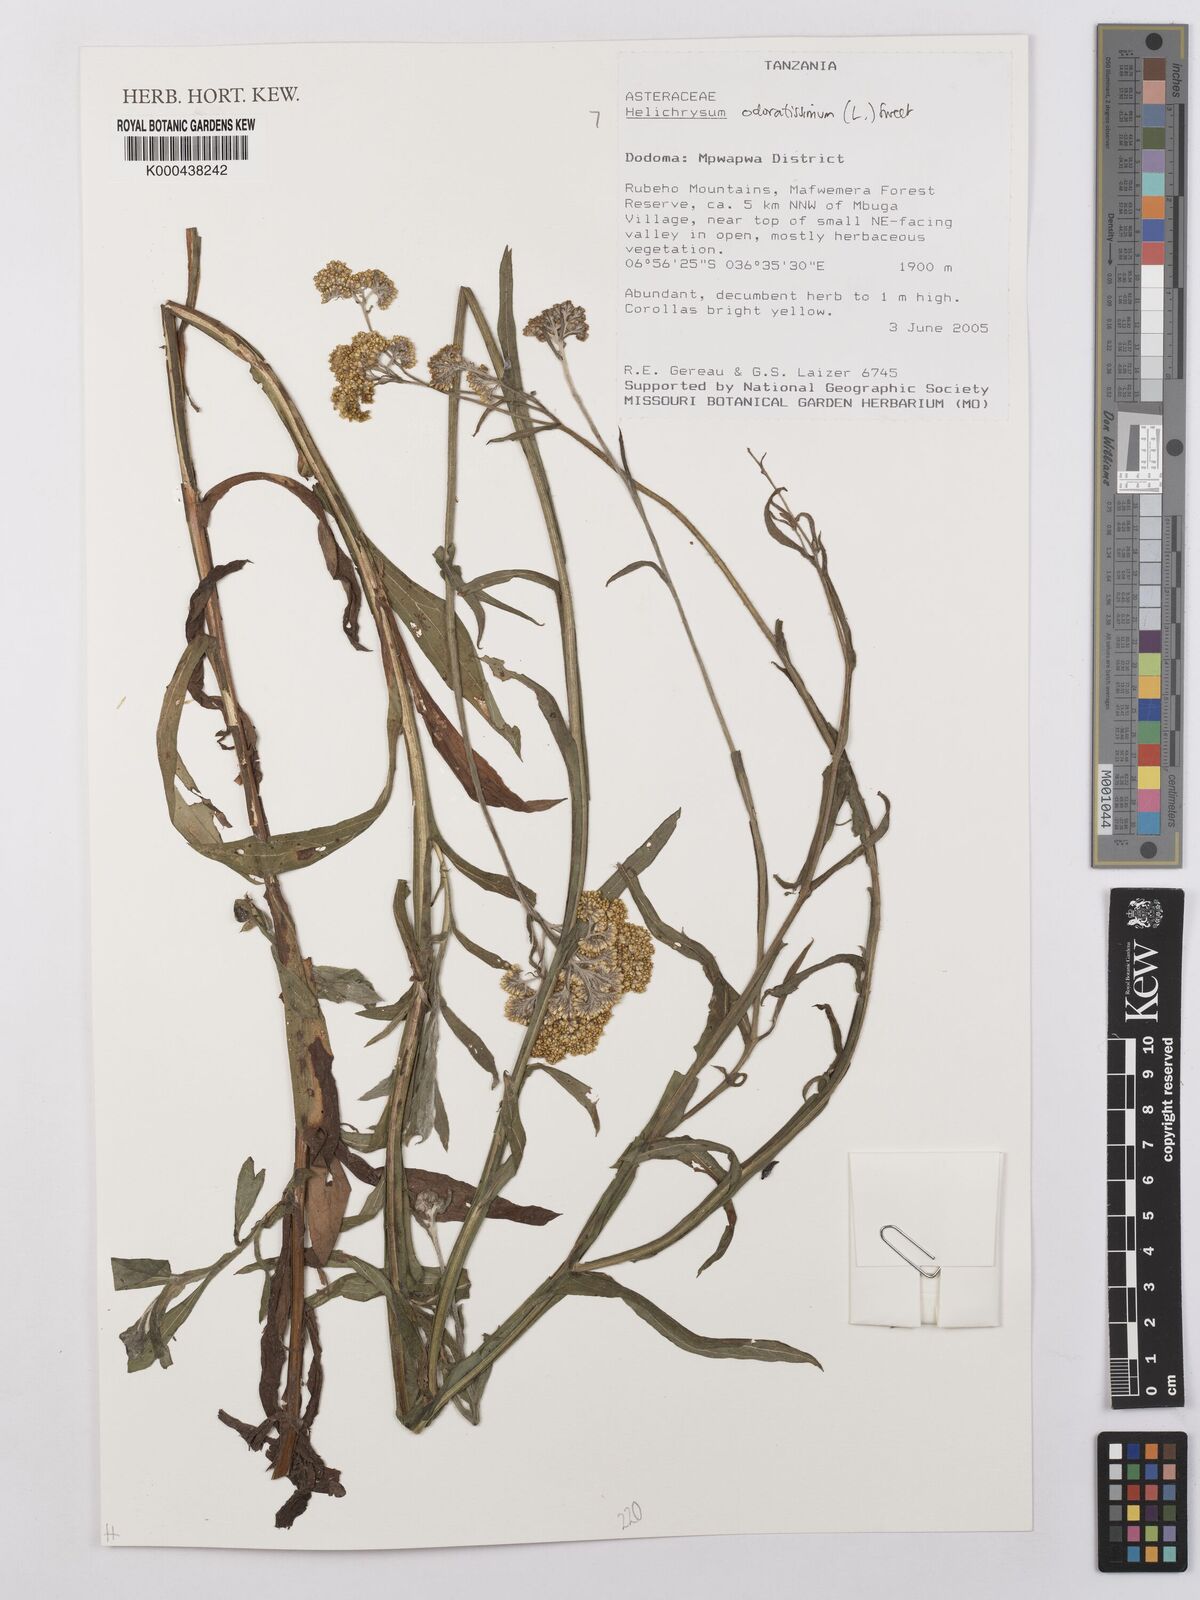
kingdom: Plantae
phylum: Tracheophyta
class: Magnoliopsida
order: Asterales
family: Asteraceae
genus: Helichrysum
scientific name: Helichrysum odoratissimum
